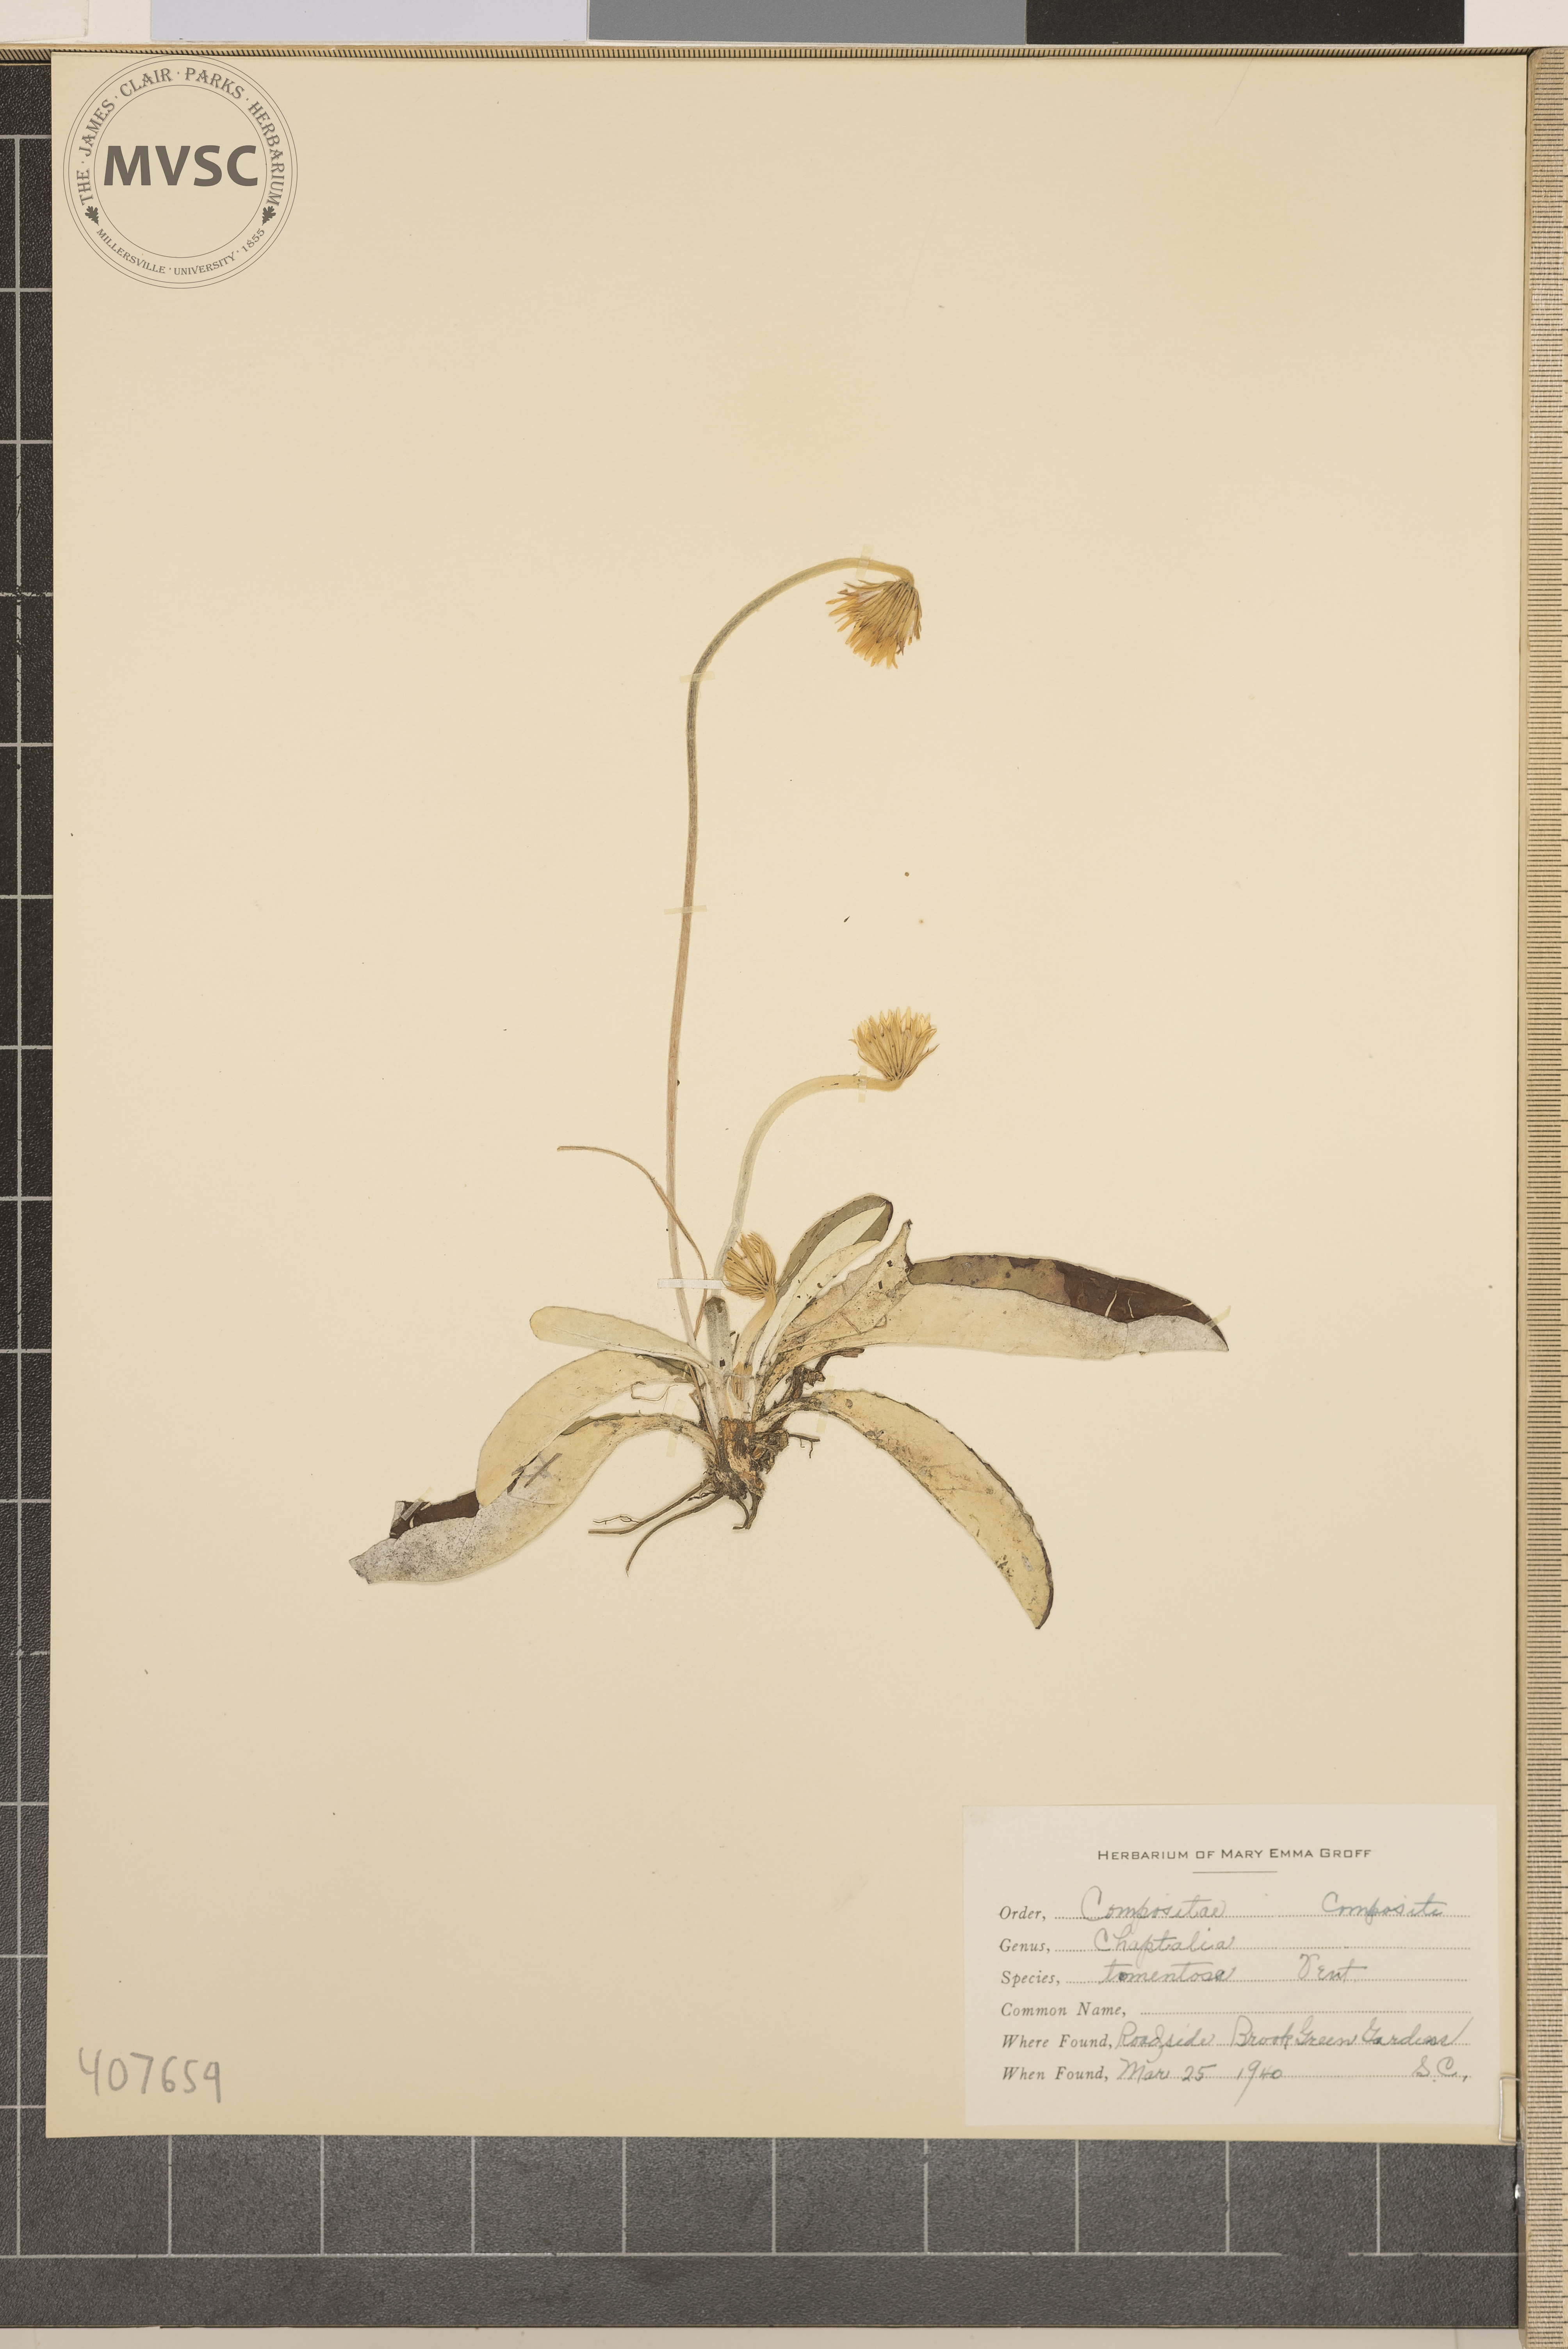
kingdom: Plantae
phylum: Tracheophyta
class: Magnoliopsida
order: Asterales
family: Asteraceae
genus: Chaptalia
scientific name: Chaptalia tomentosa
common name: Woolly Sunbonnet
